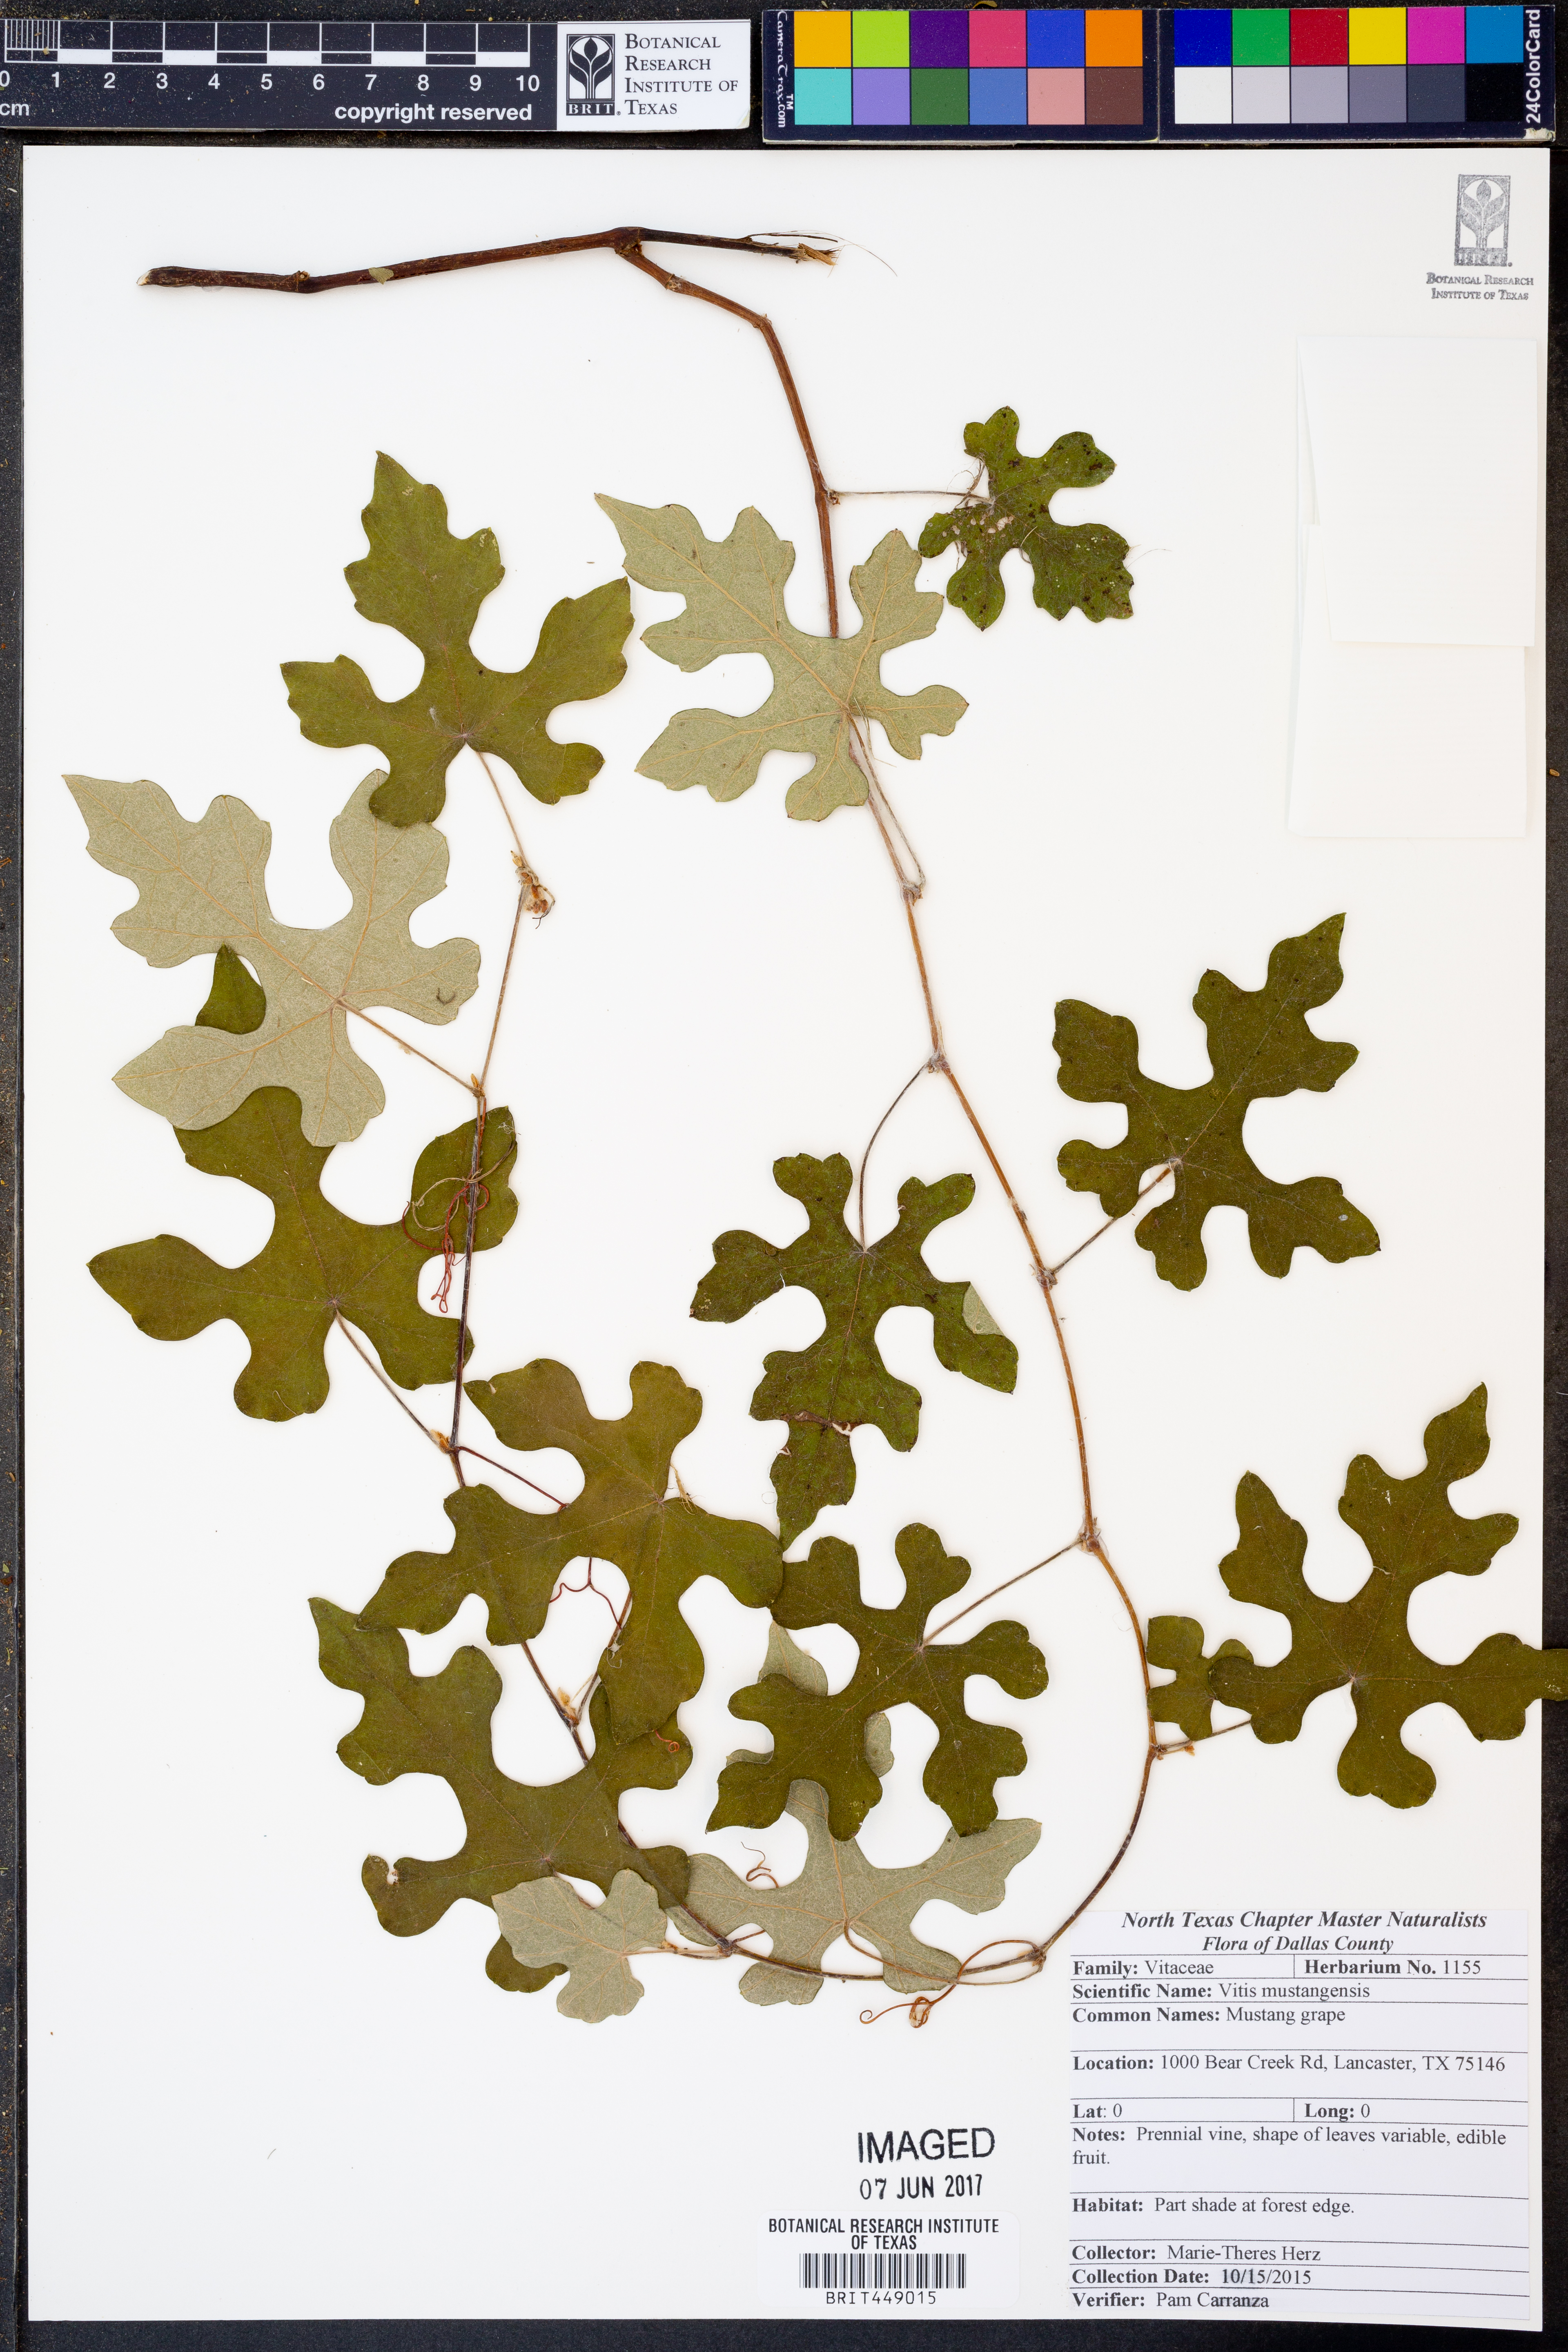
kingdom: Plantae
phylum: Tracheophyta
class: Magnoliopsida
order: Vitales
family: Vitaceae
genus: Vitis
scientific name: Vitis mustangensis
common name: Mustang grape
